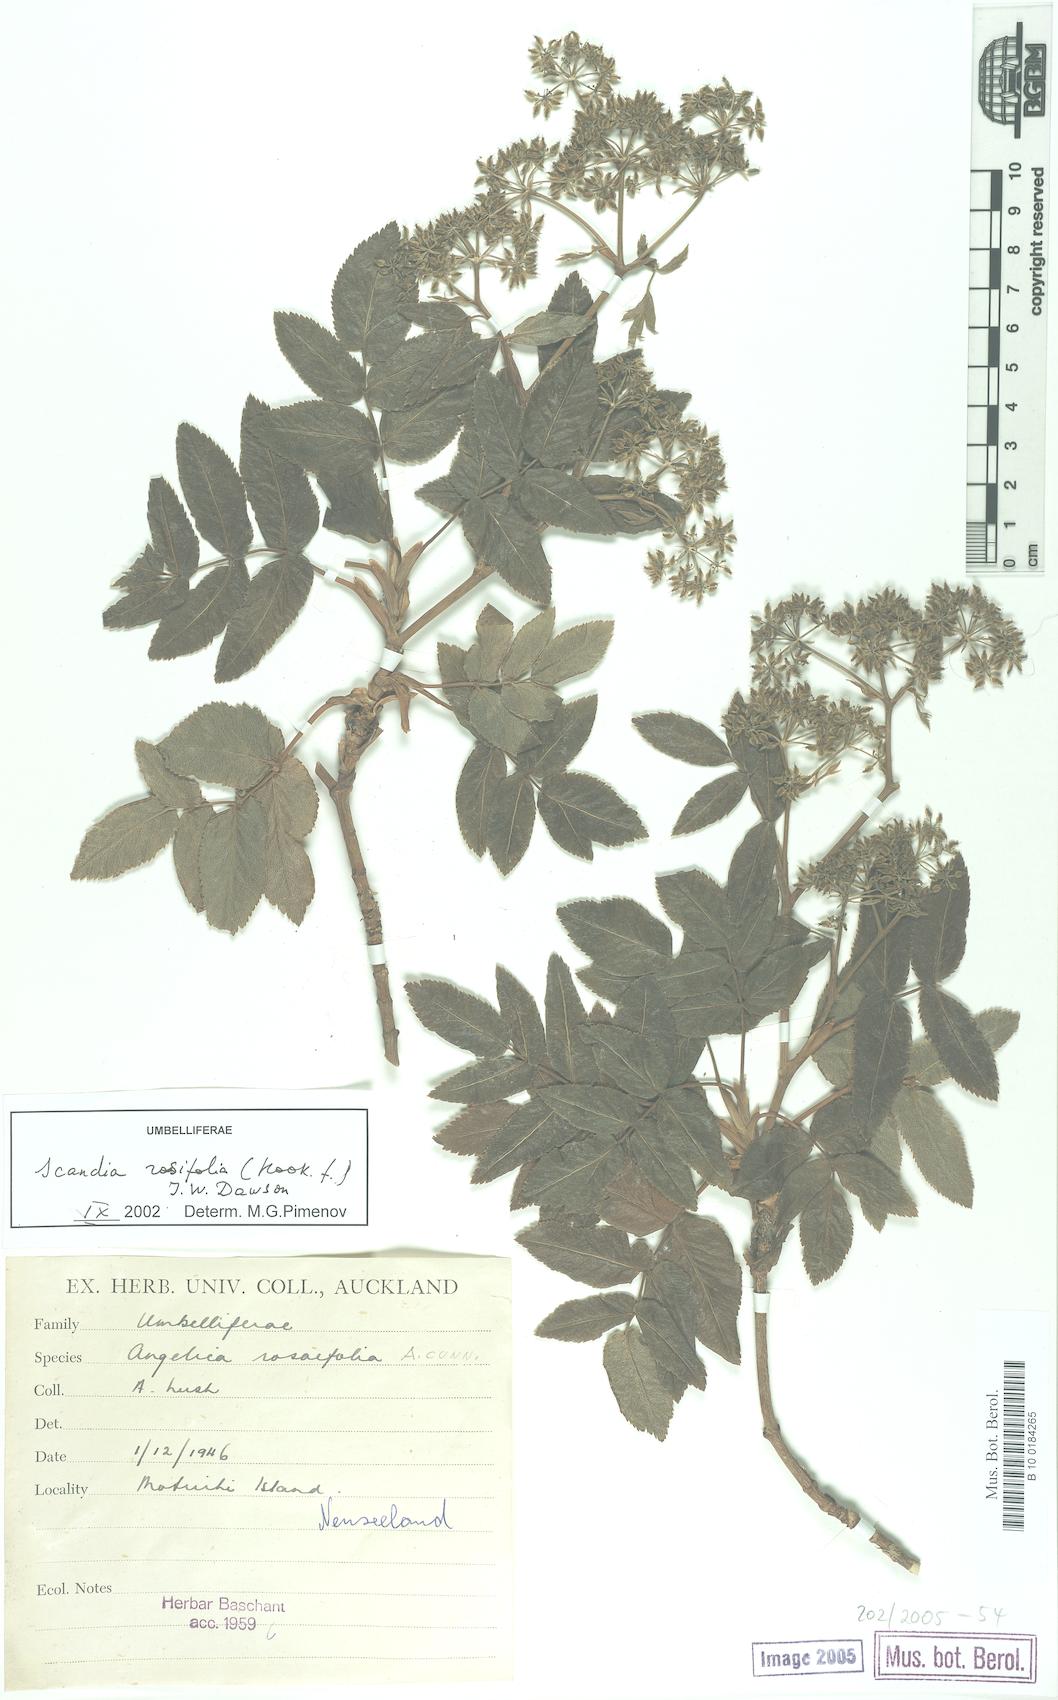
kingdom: Plantae
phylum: Tracheophyta
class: Magnoliopsida
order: Apiales
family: Apiaceae
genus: Scandia
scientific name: Scandia rosifolia
